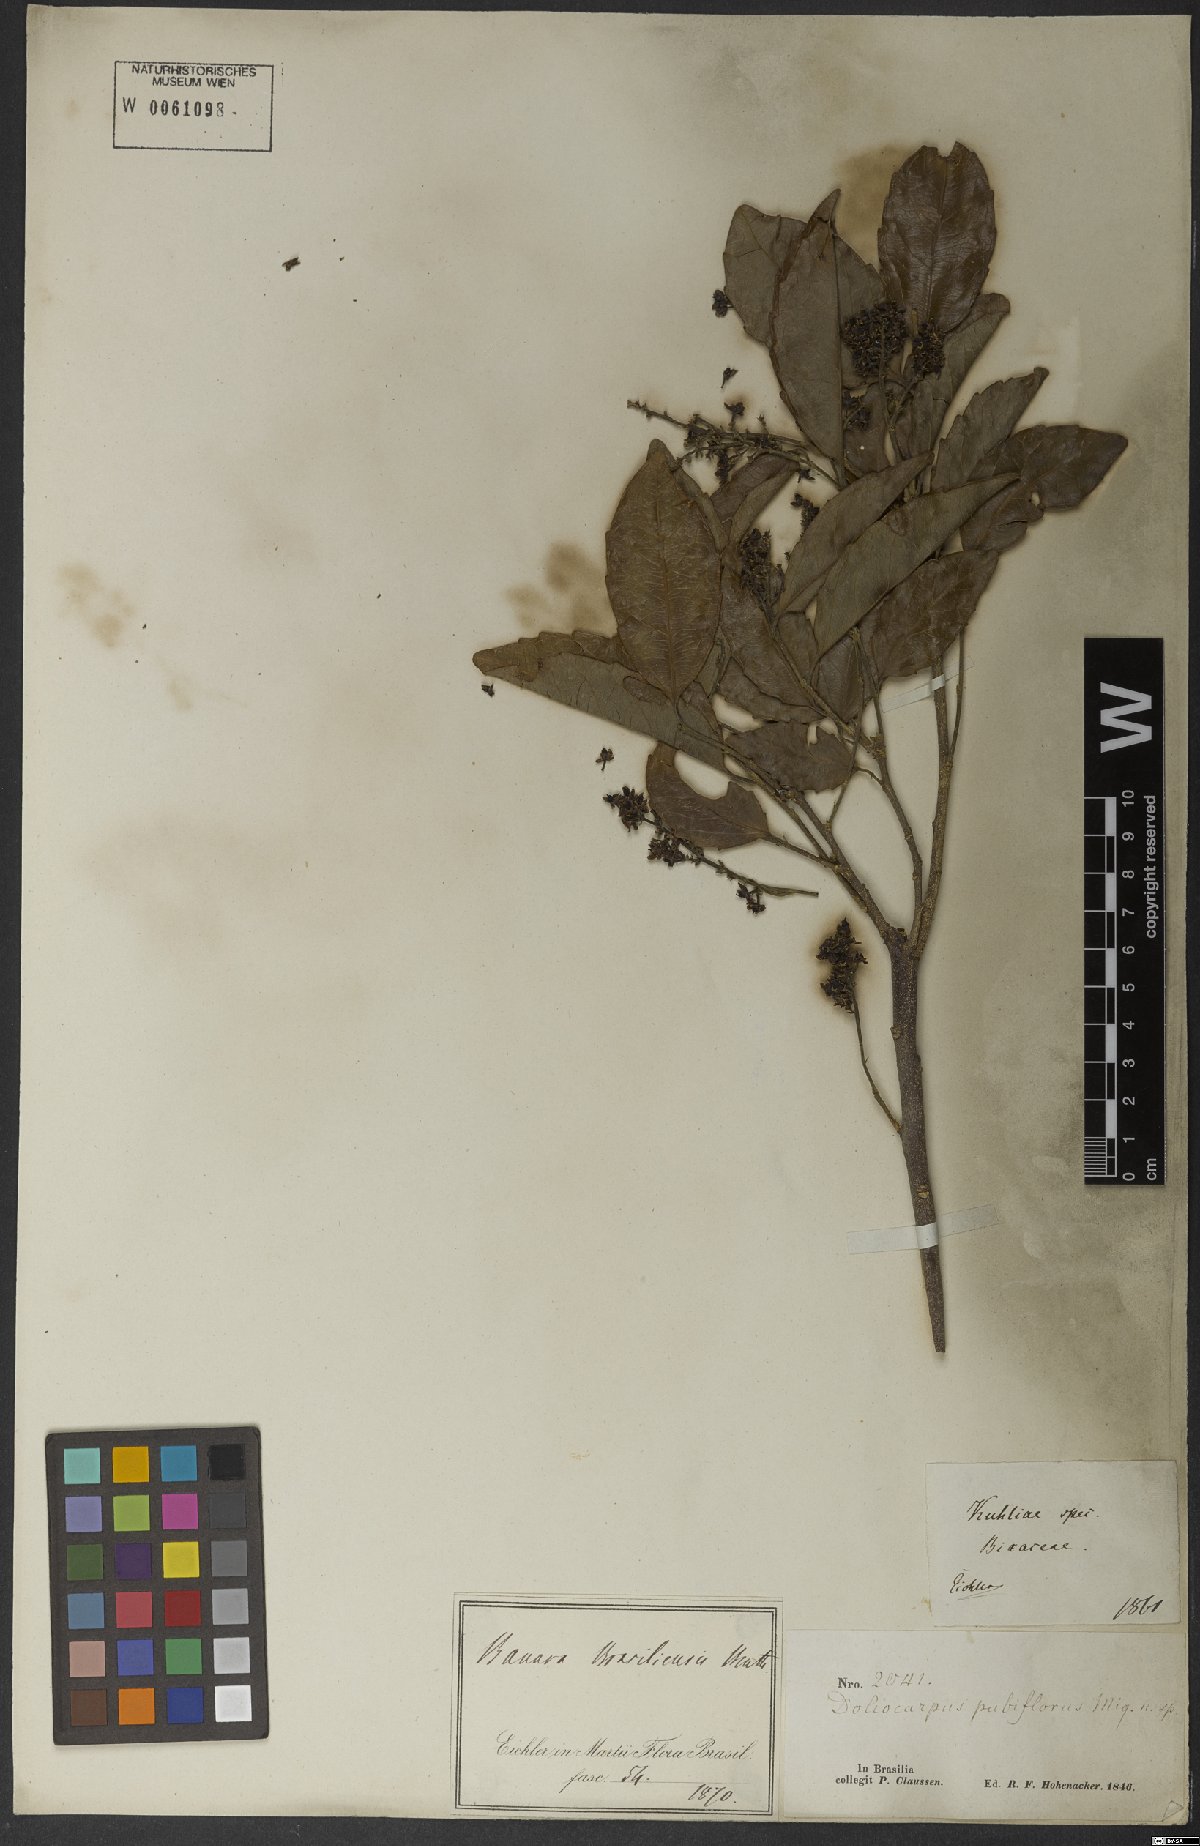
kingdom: Plantae
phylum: Tracheophyta
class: Magnoliopsida
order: Malpighiales
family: Salicaceae
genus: Banara
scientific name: Banara brasiliensis
